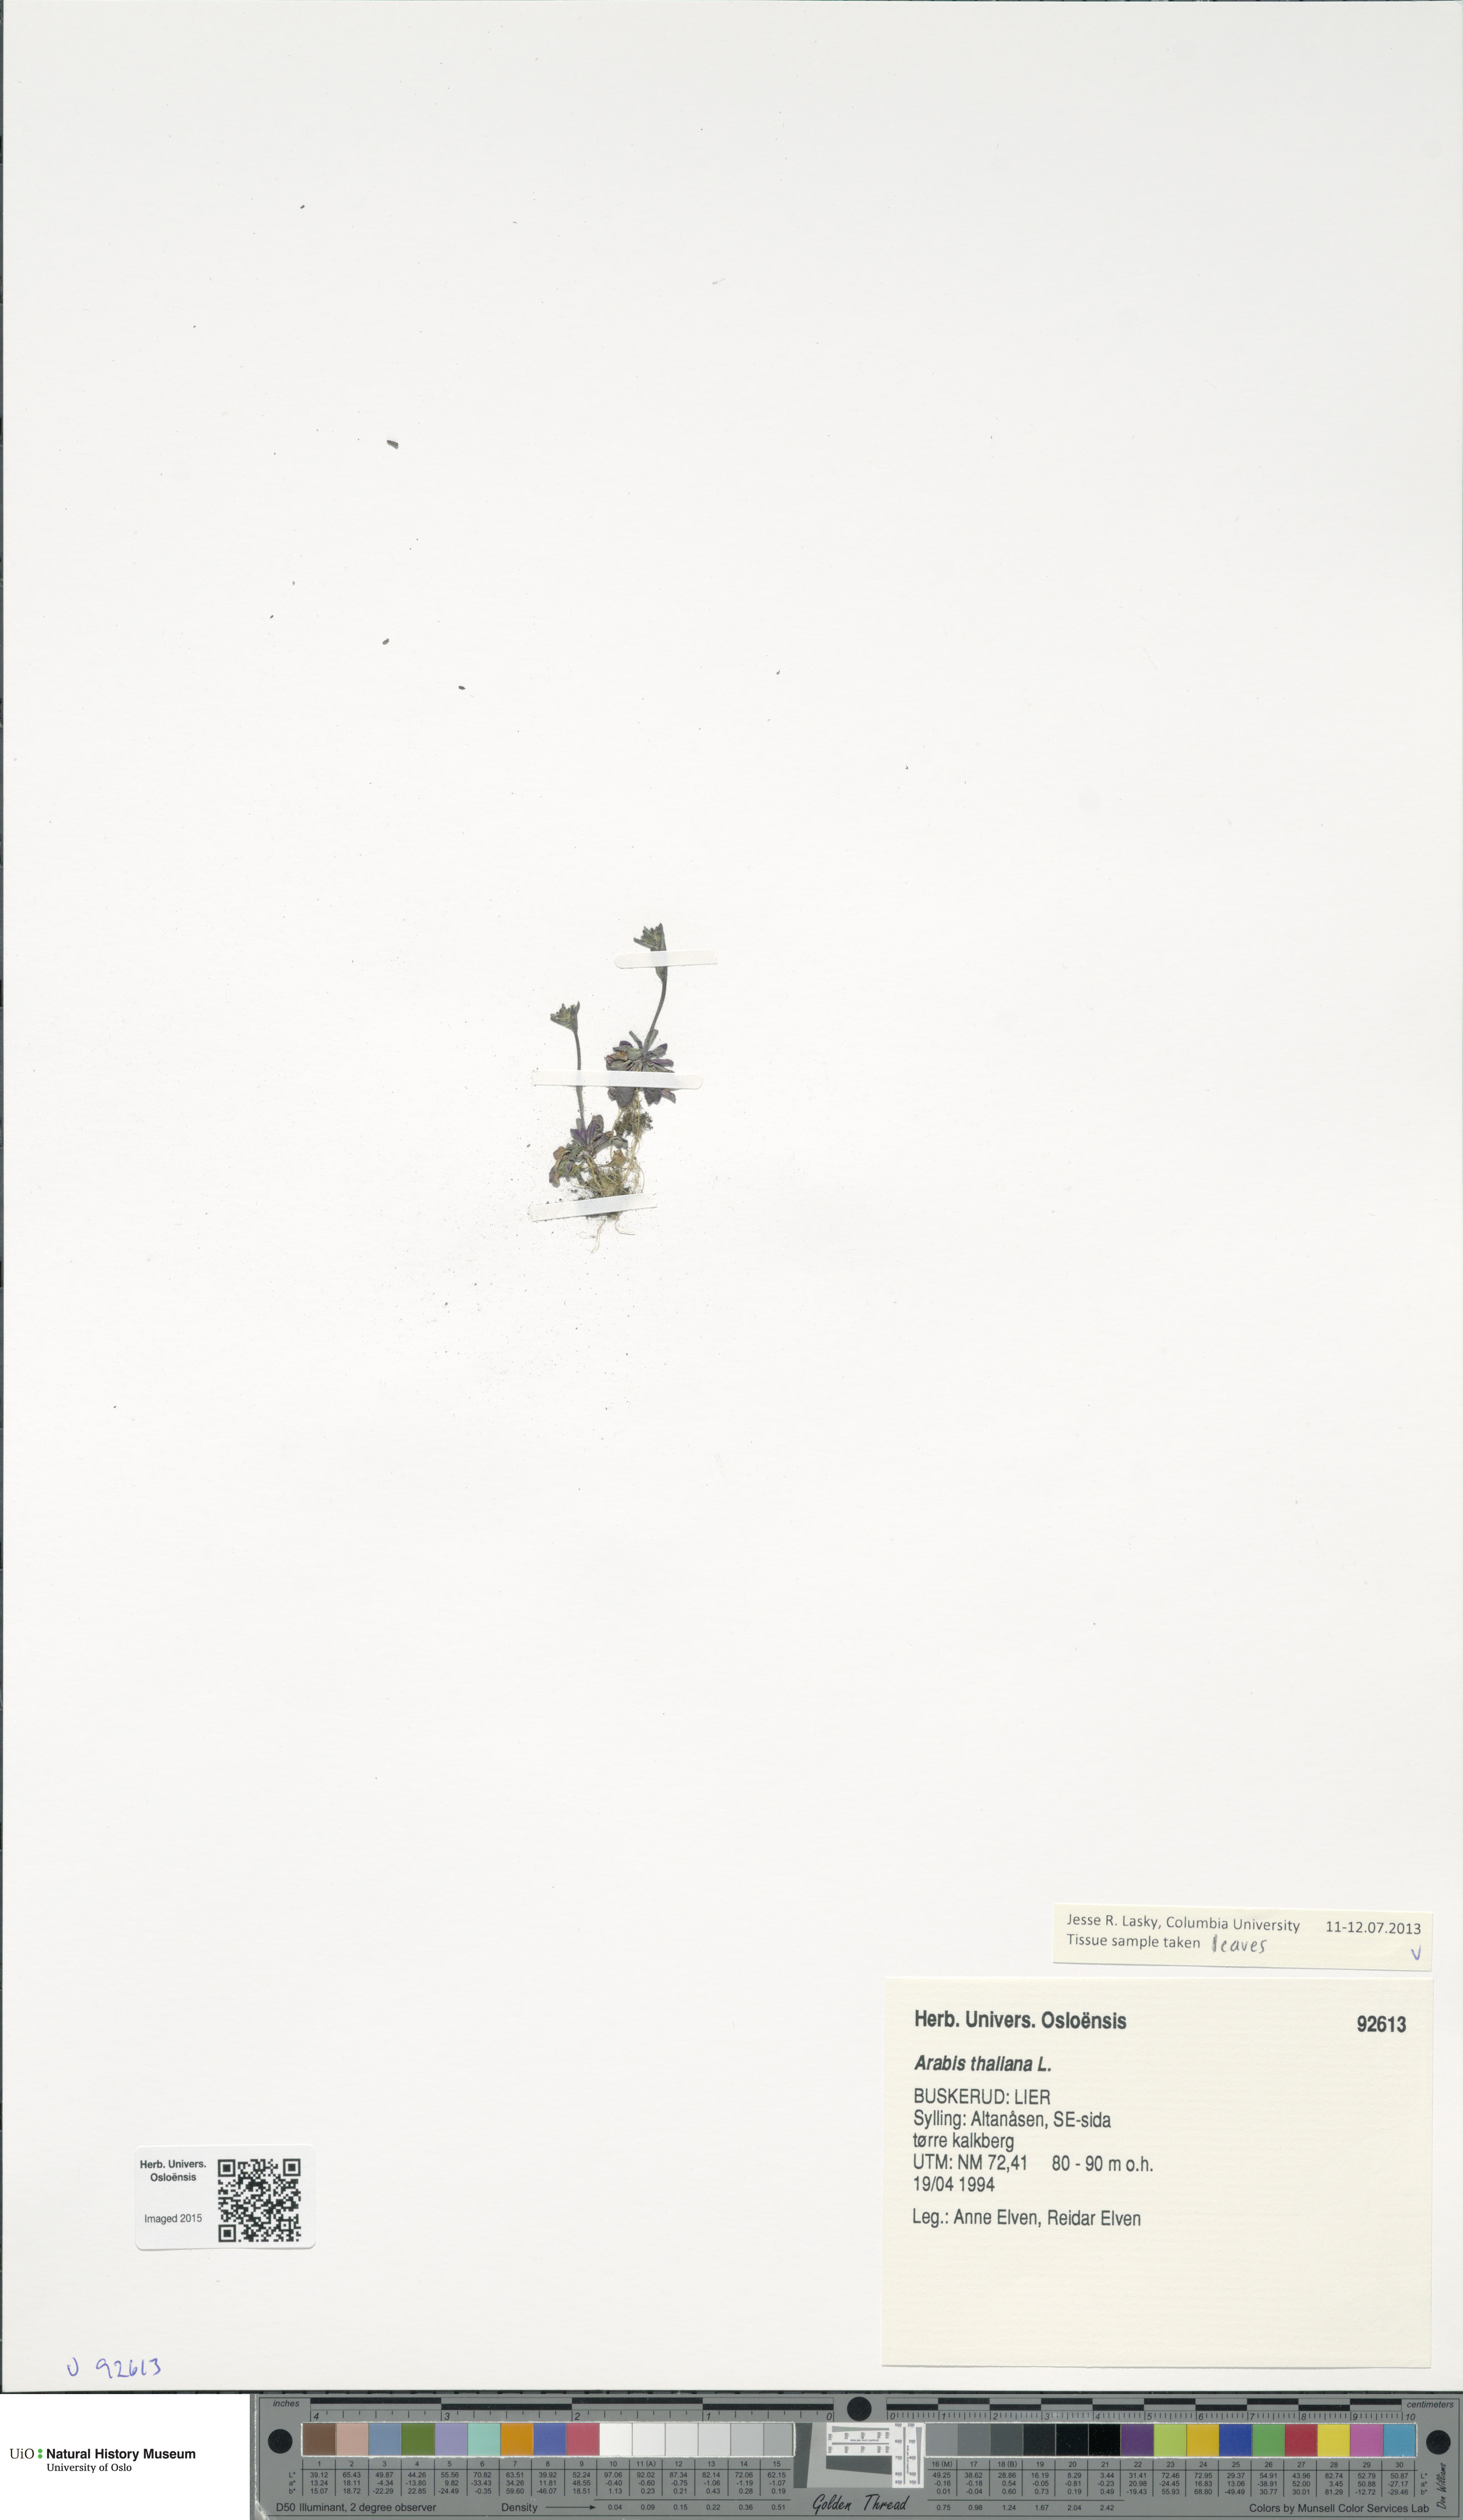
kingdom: Plantae
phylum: Tracheophyta
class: Magnoliopsida
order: Brassicales
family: Brassicaceae
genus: Arabidopsis
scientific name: Arabidopsis thaliana
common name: Thale cress
